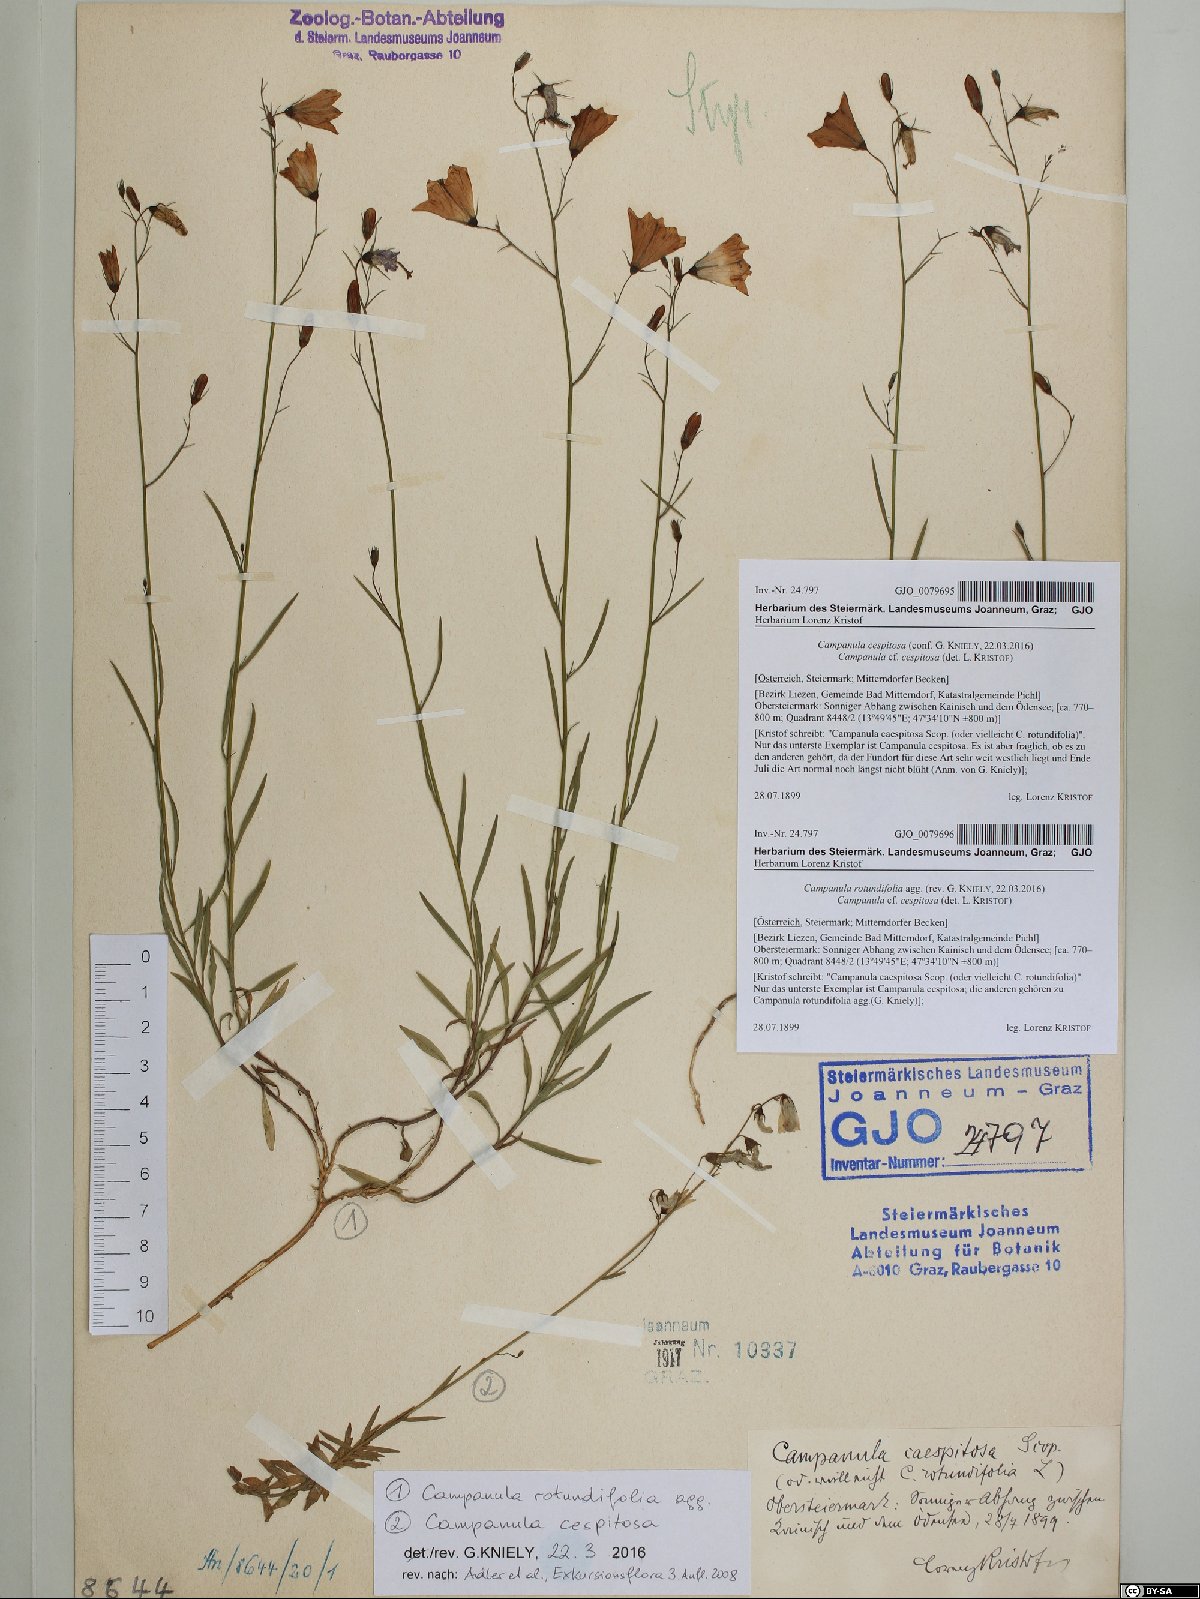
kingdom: Plantae
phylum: Tracheophyta
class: Magnoliopsida
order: Asterales
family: Campanulaceae
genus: Campanula
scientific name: Campanula cespitosa
